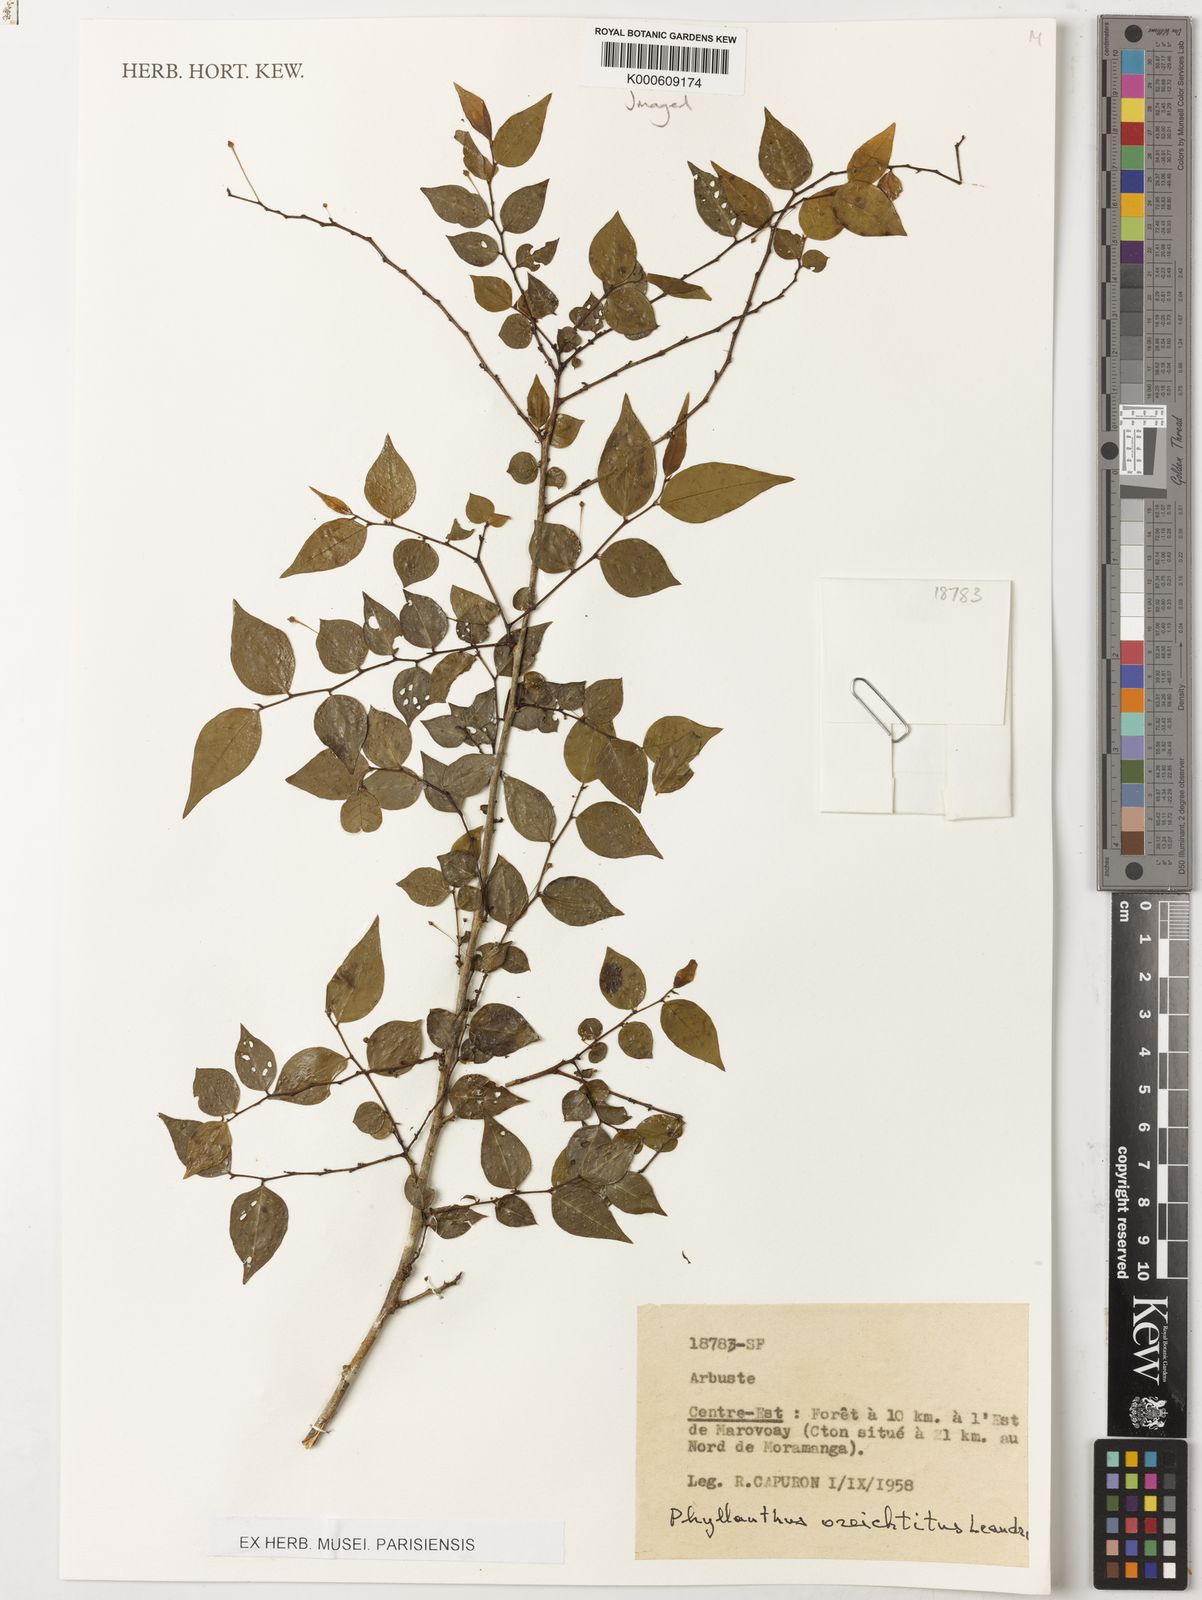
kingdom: Plantae
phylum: Tracheophyta
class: Magnoliopsida
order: Malpighiales
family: Phyllanthaceae
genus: Phyllanthus
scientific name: Phyllanthus oreichtitus
